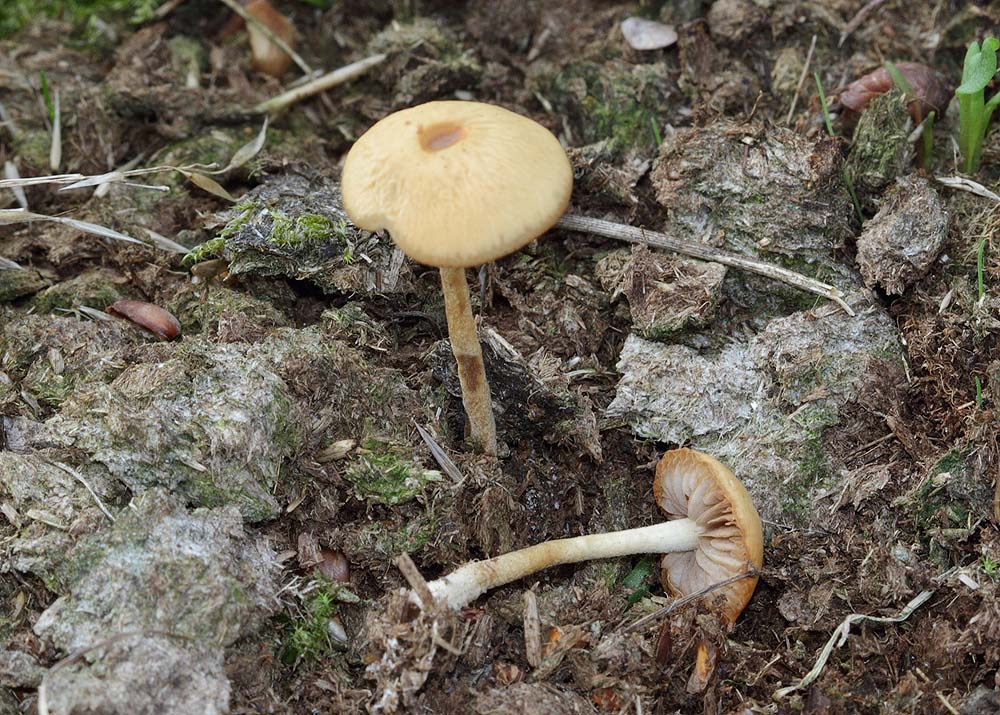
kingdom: Fungi
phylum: Basidiomycota
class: Agaricomycetes
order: Agaricales
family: Strophariaceae
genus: Agrocybe
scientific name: Agrocybe fimicola
